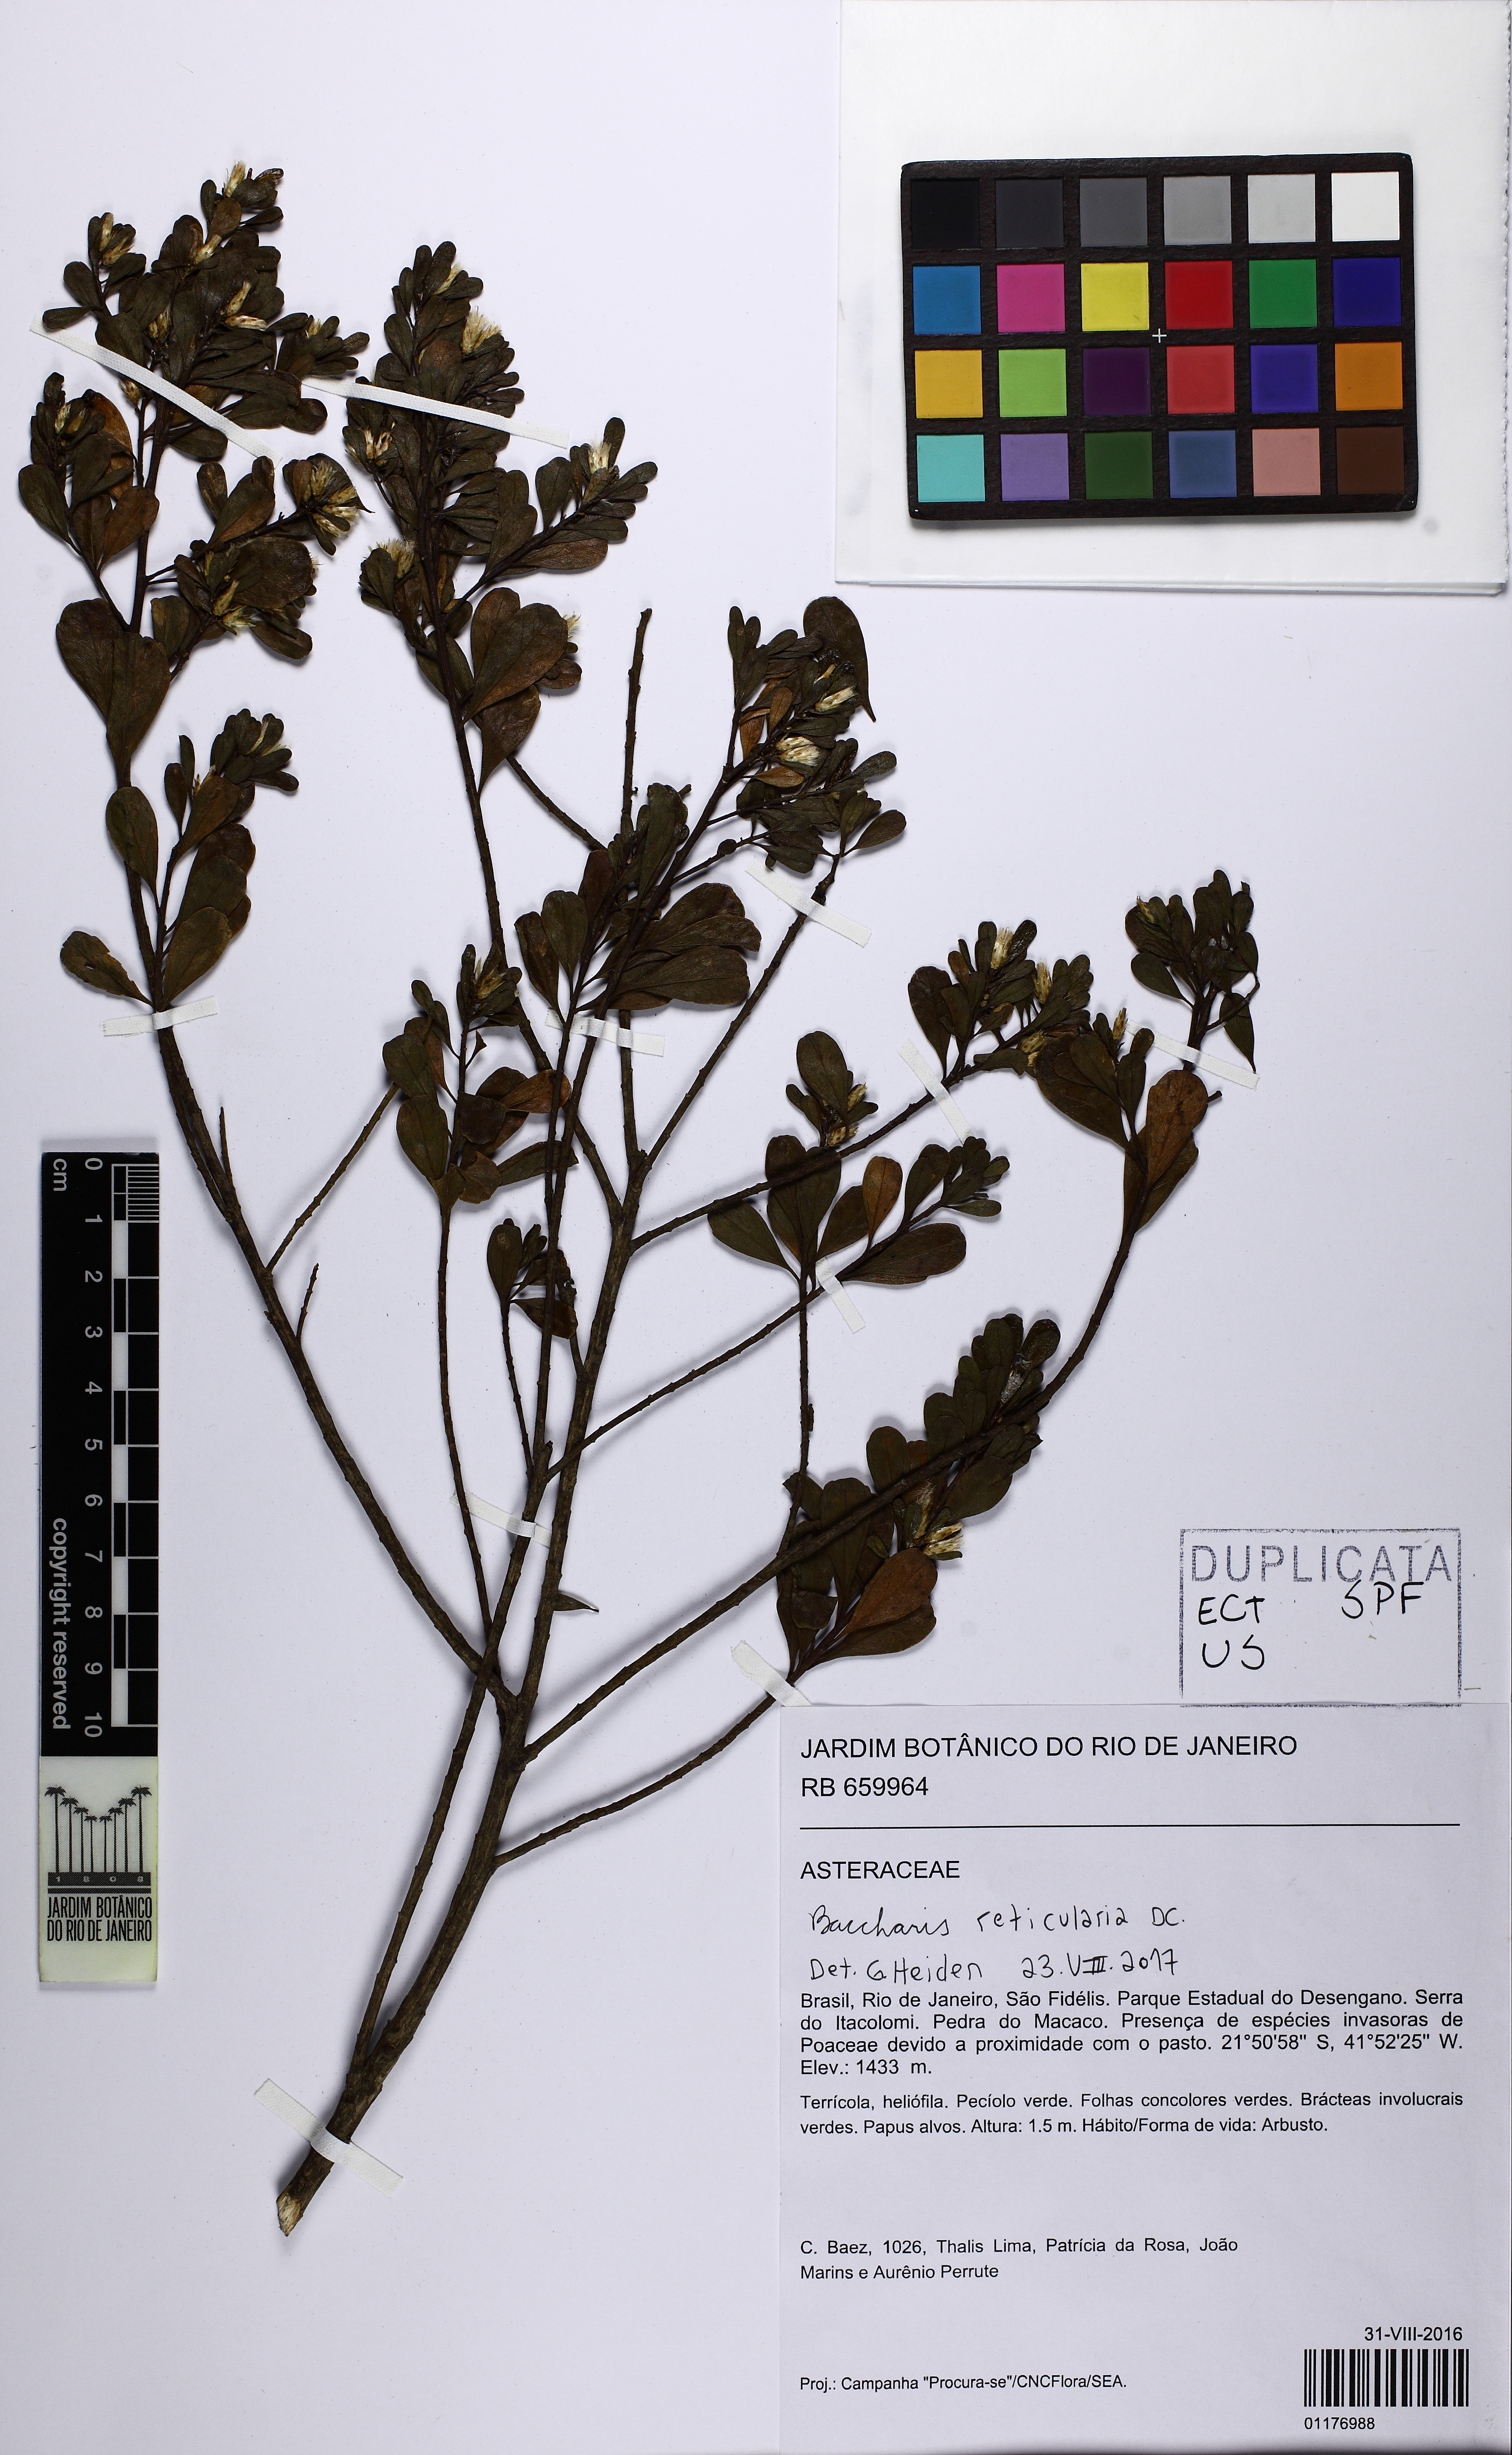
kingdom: Plantae
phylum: Tracheophyta
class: Magnoliopsida
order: Asterales
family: Asteraceae
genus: Baccharis
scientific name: Baccharis genistelloides
